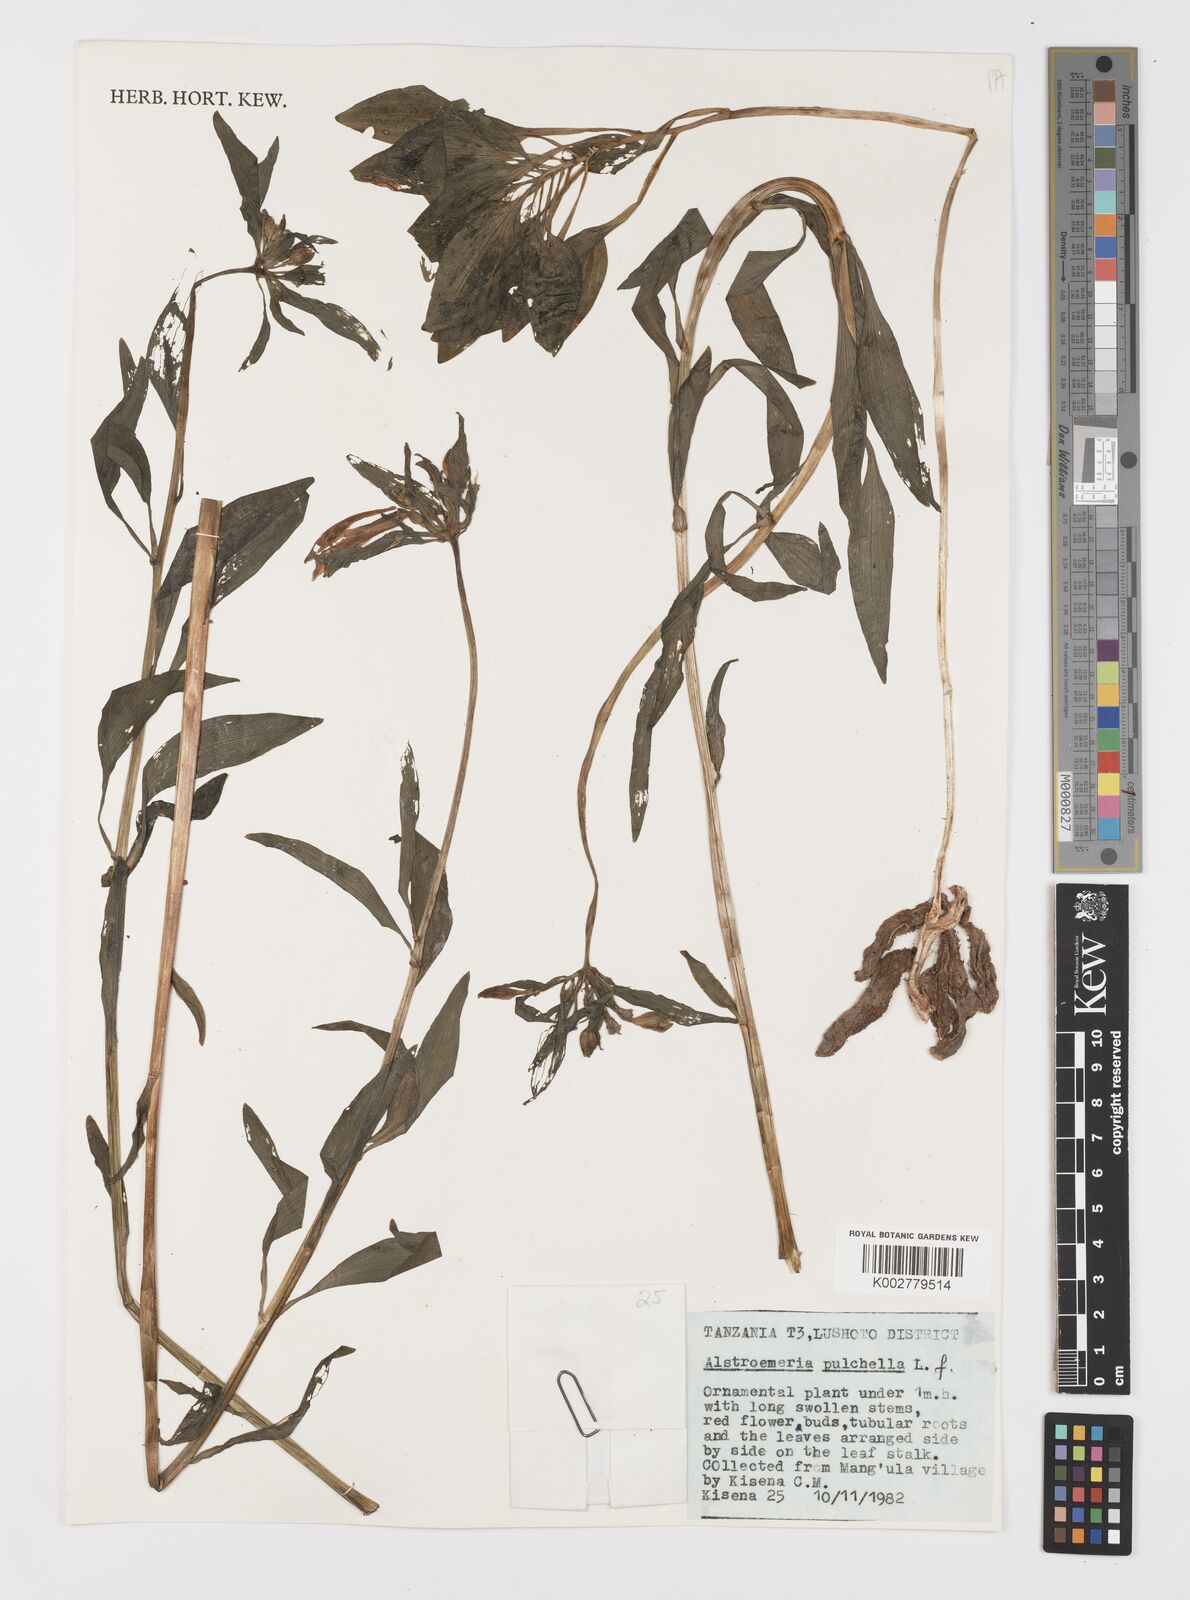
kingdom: Plantae
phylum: Tracheophyta
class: Liliopsida
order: Liliales
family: Alstroemeriaceae
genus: Alstroemeria
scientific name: Alstroemeria pelegrina
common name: Peruvian-lily
